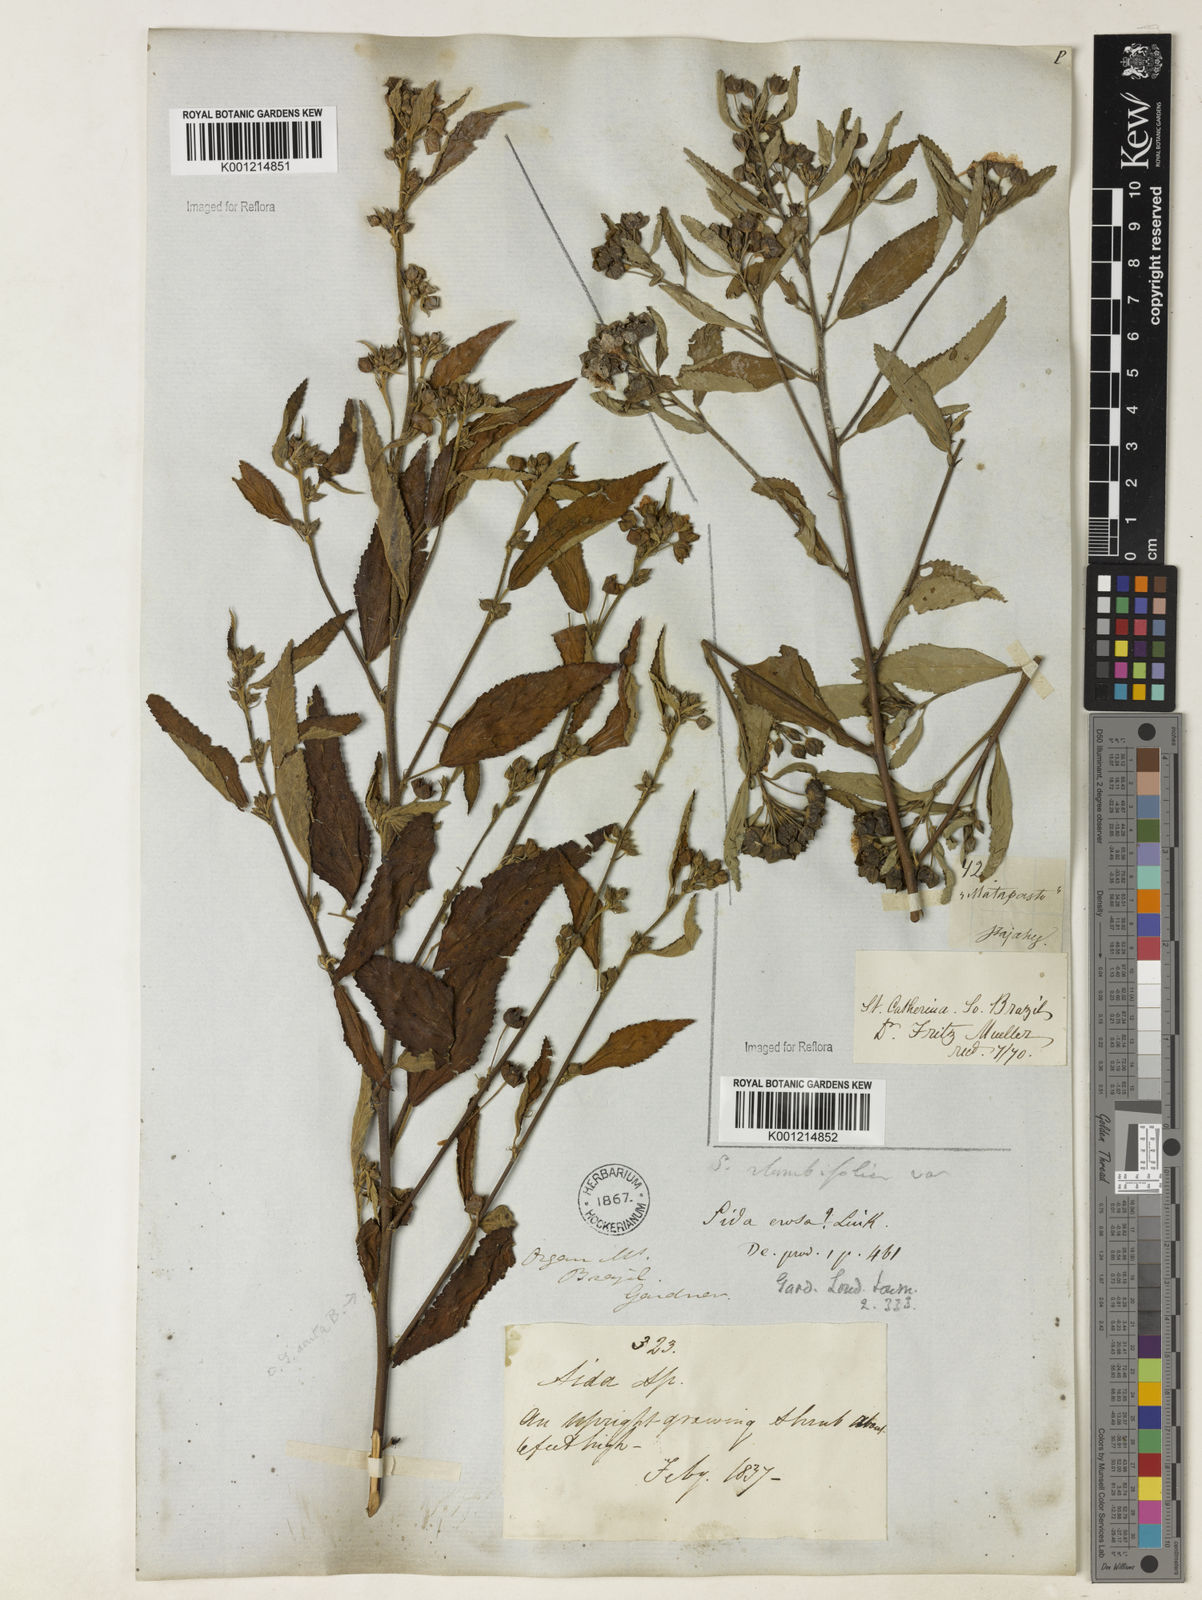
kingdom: Plantae
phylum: Tracheophyta
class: Magnoliopsida
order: Malvales
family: Malvaceae
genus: Sida
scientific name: Sida rhombifolia
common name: Queensland-hemp
